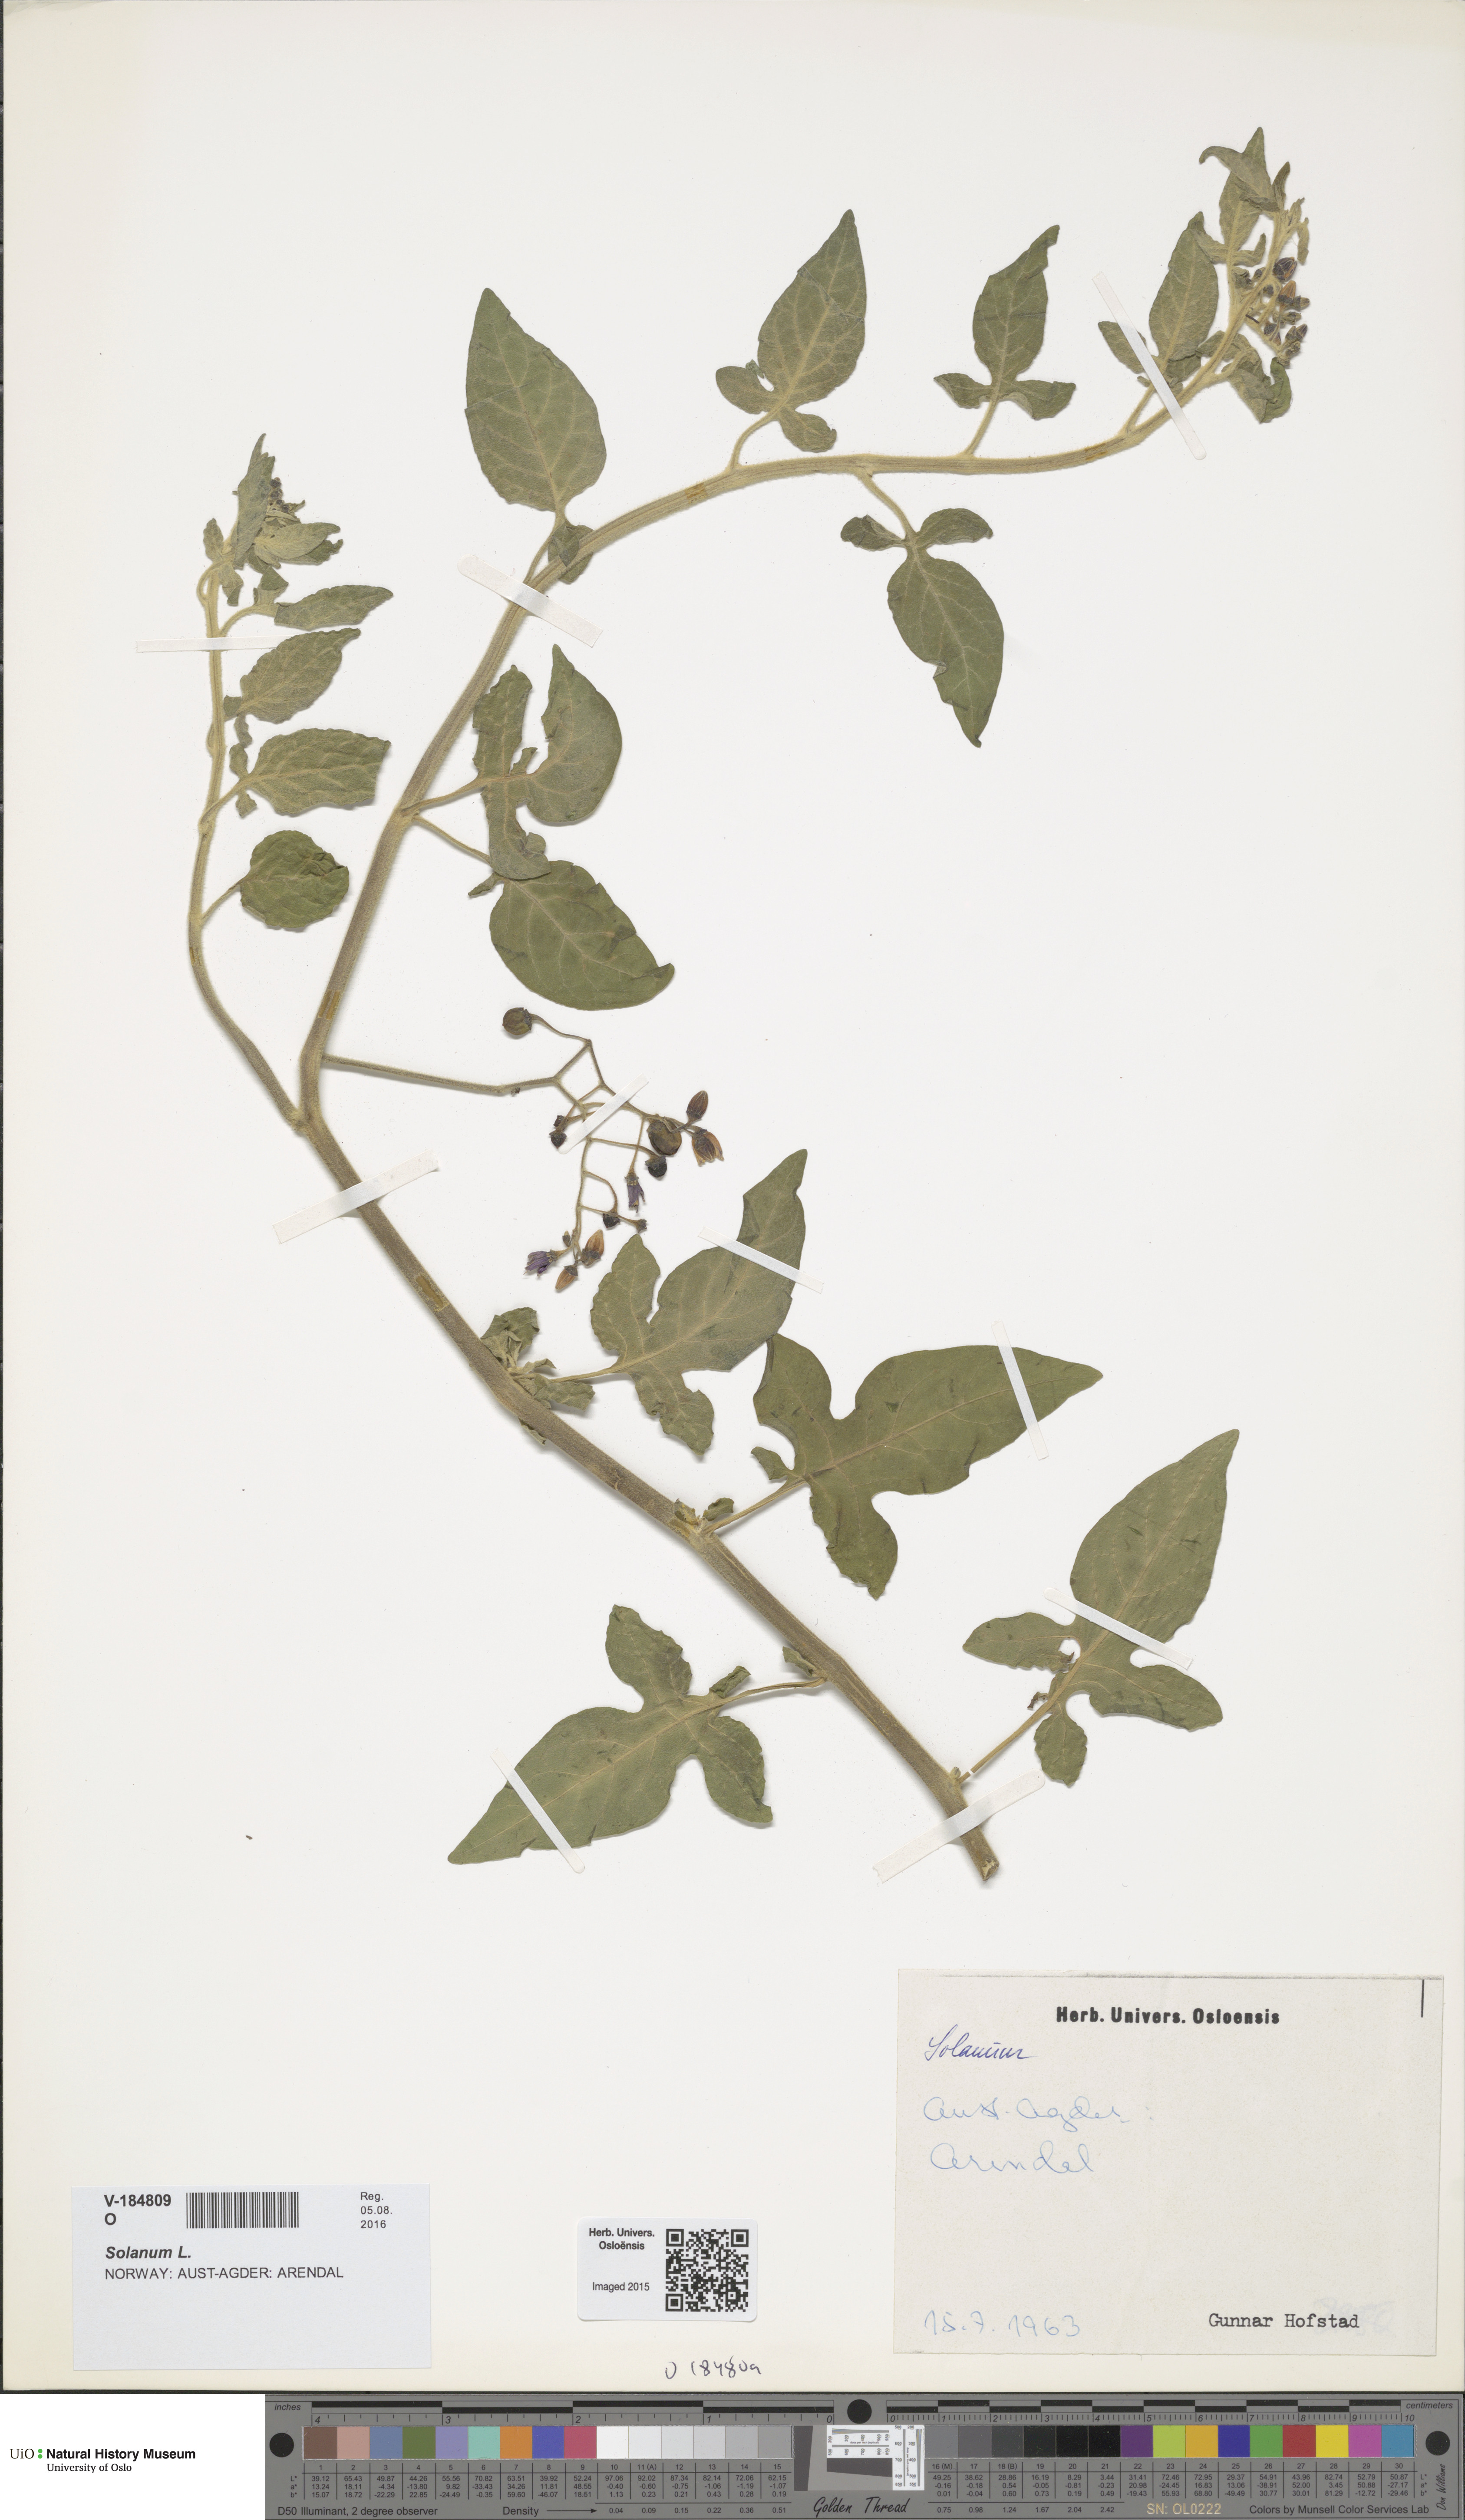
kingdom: Plantae
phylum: Tracheophyta
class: Magnoliopsida
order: Solanales
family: Solanaceae
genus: Solanum
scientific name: Solanum
